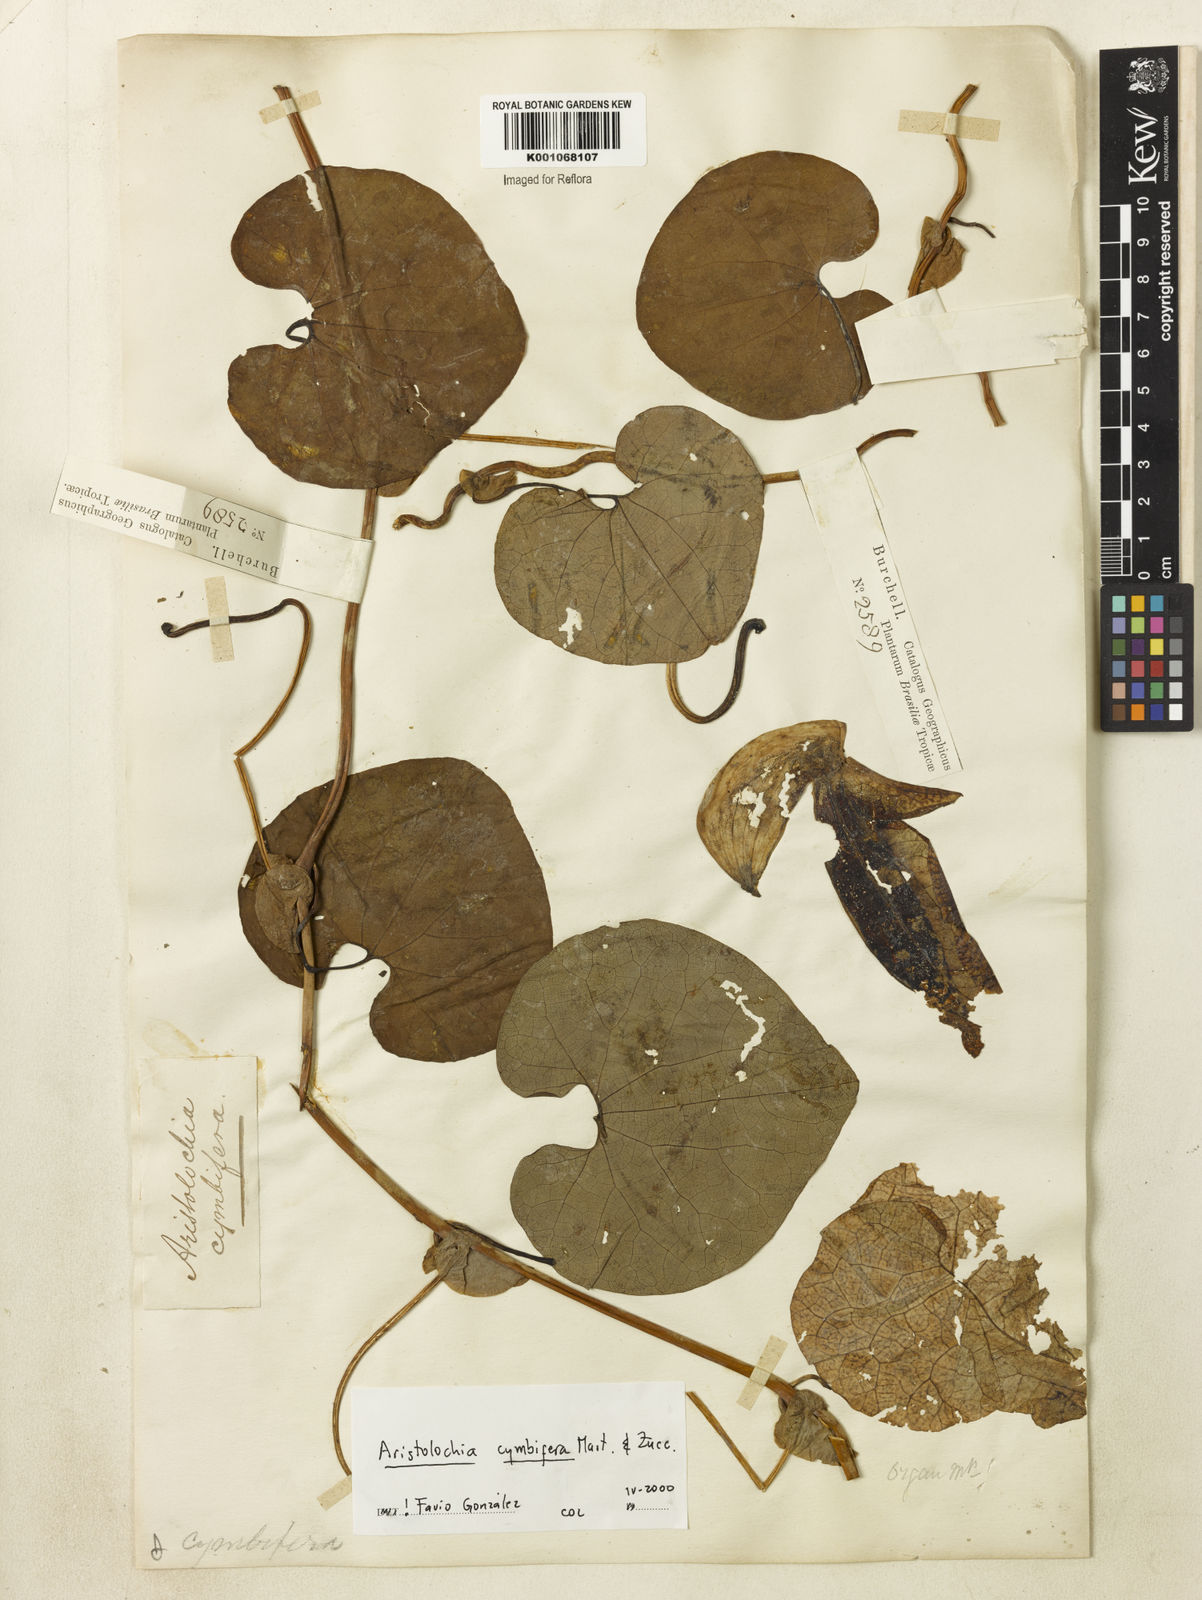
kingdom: Plantae
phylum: Tracheophyta
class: Magnoliopsida
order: Piperales
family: Aristolochiaceae
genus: Aristolochia
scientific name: Aristolochia cymbifera
